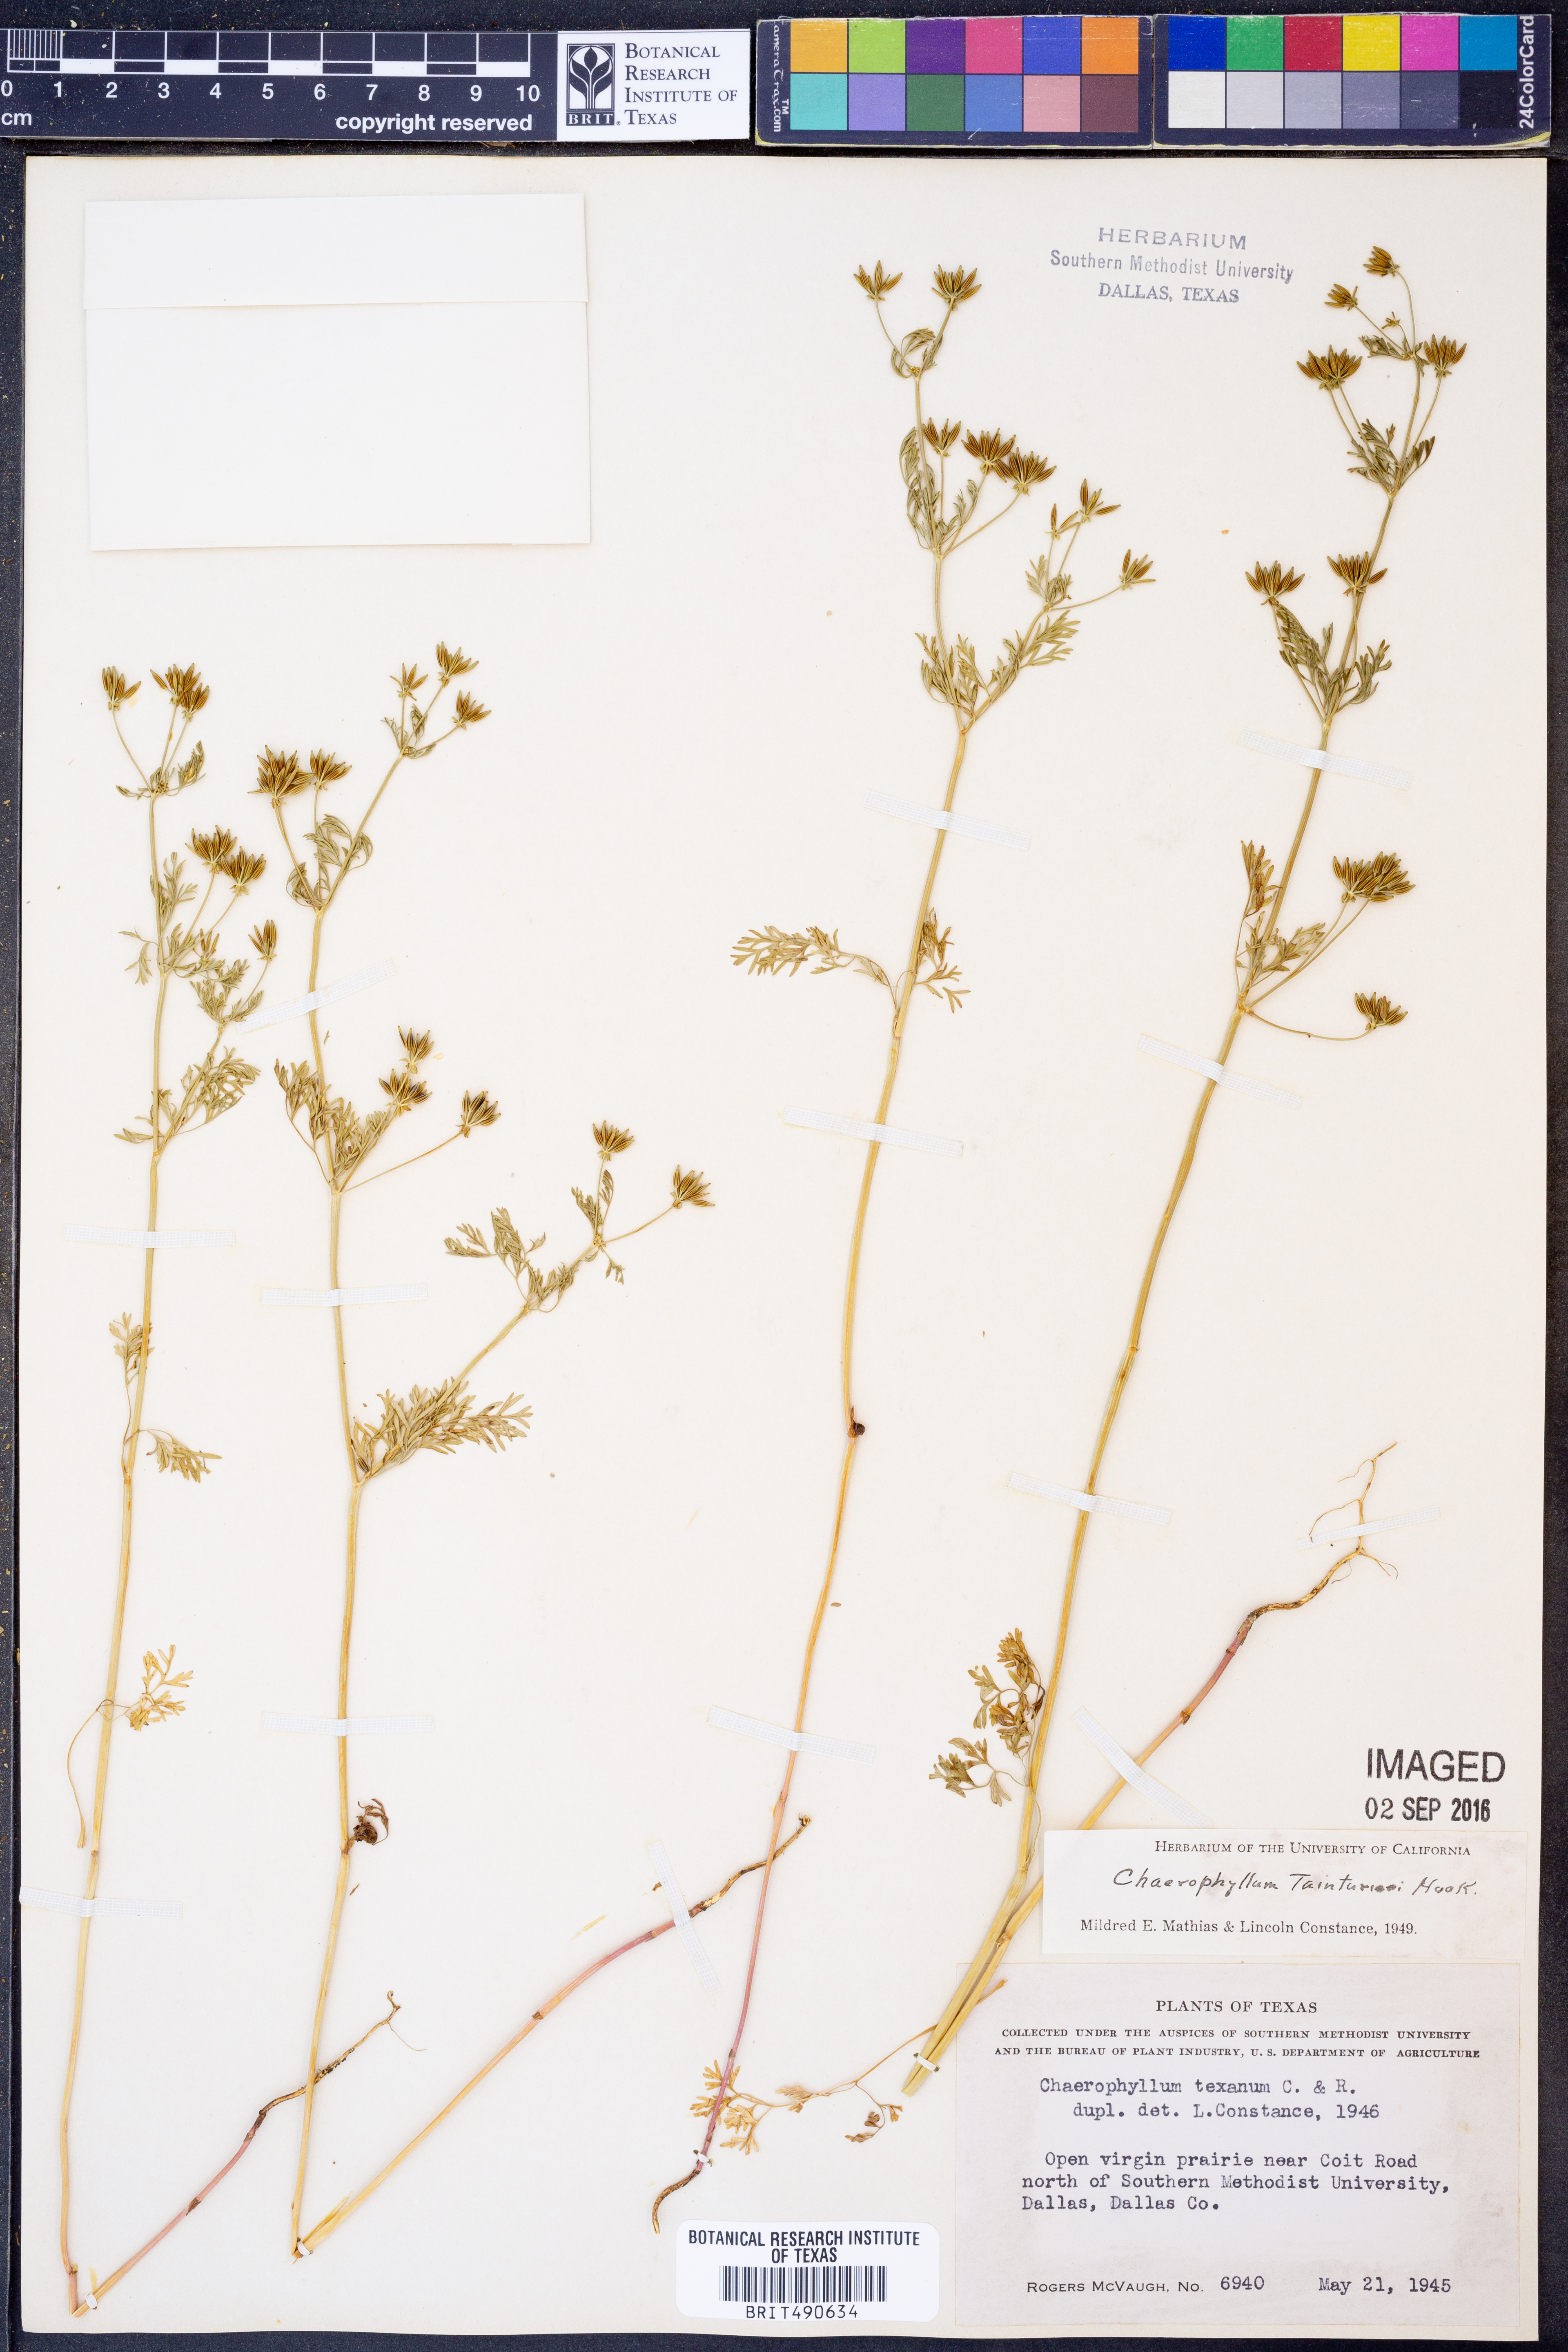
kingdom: Plantae
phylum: Tracheophyta
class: Magnoliopsida
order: Apiales
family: Apiaceae
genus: Chaerophyllum
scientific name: Chaerophyllum tainturieri
